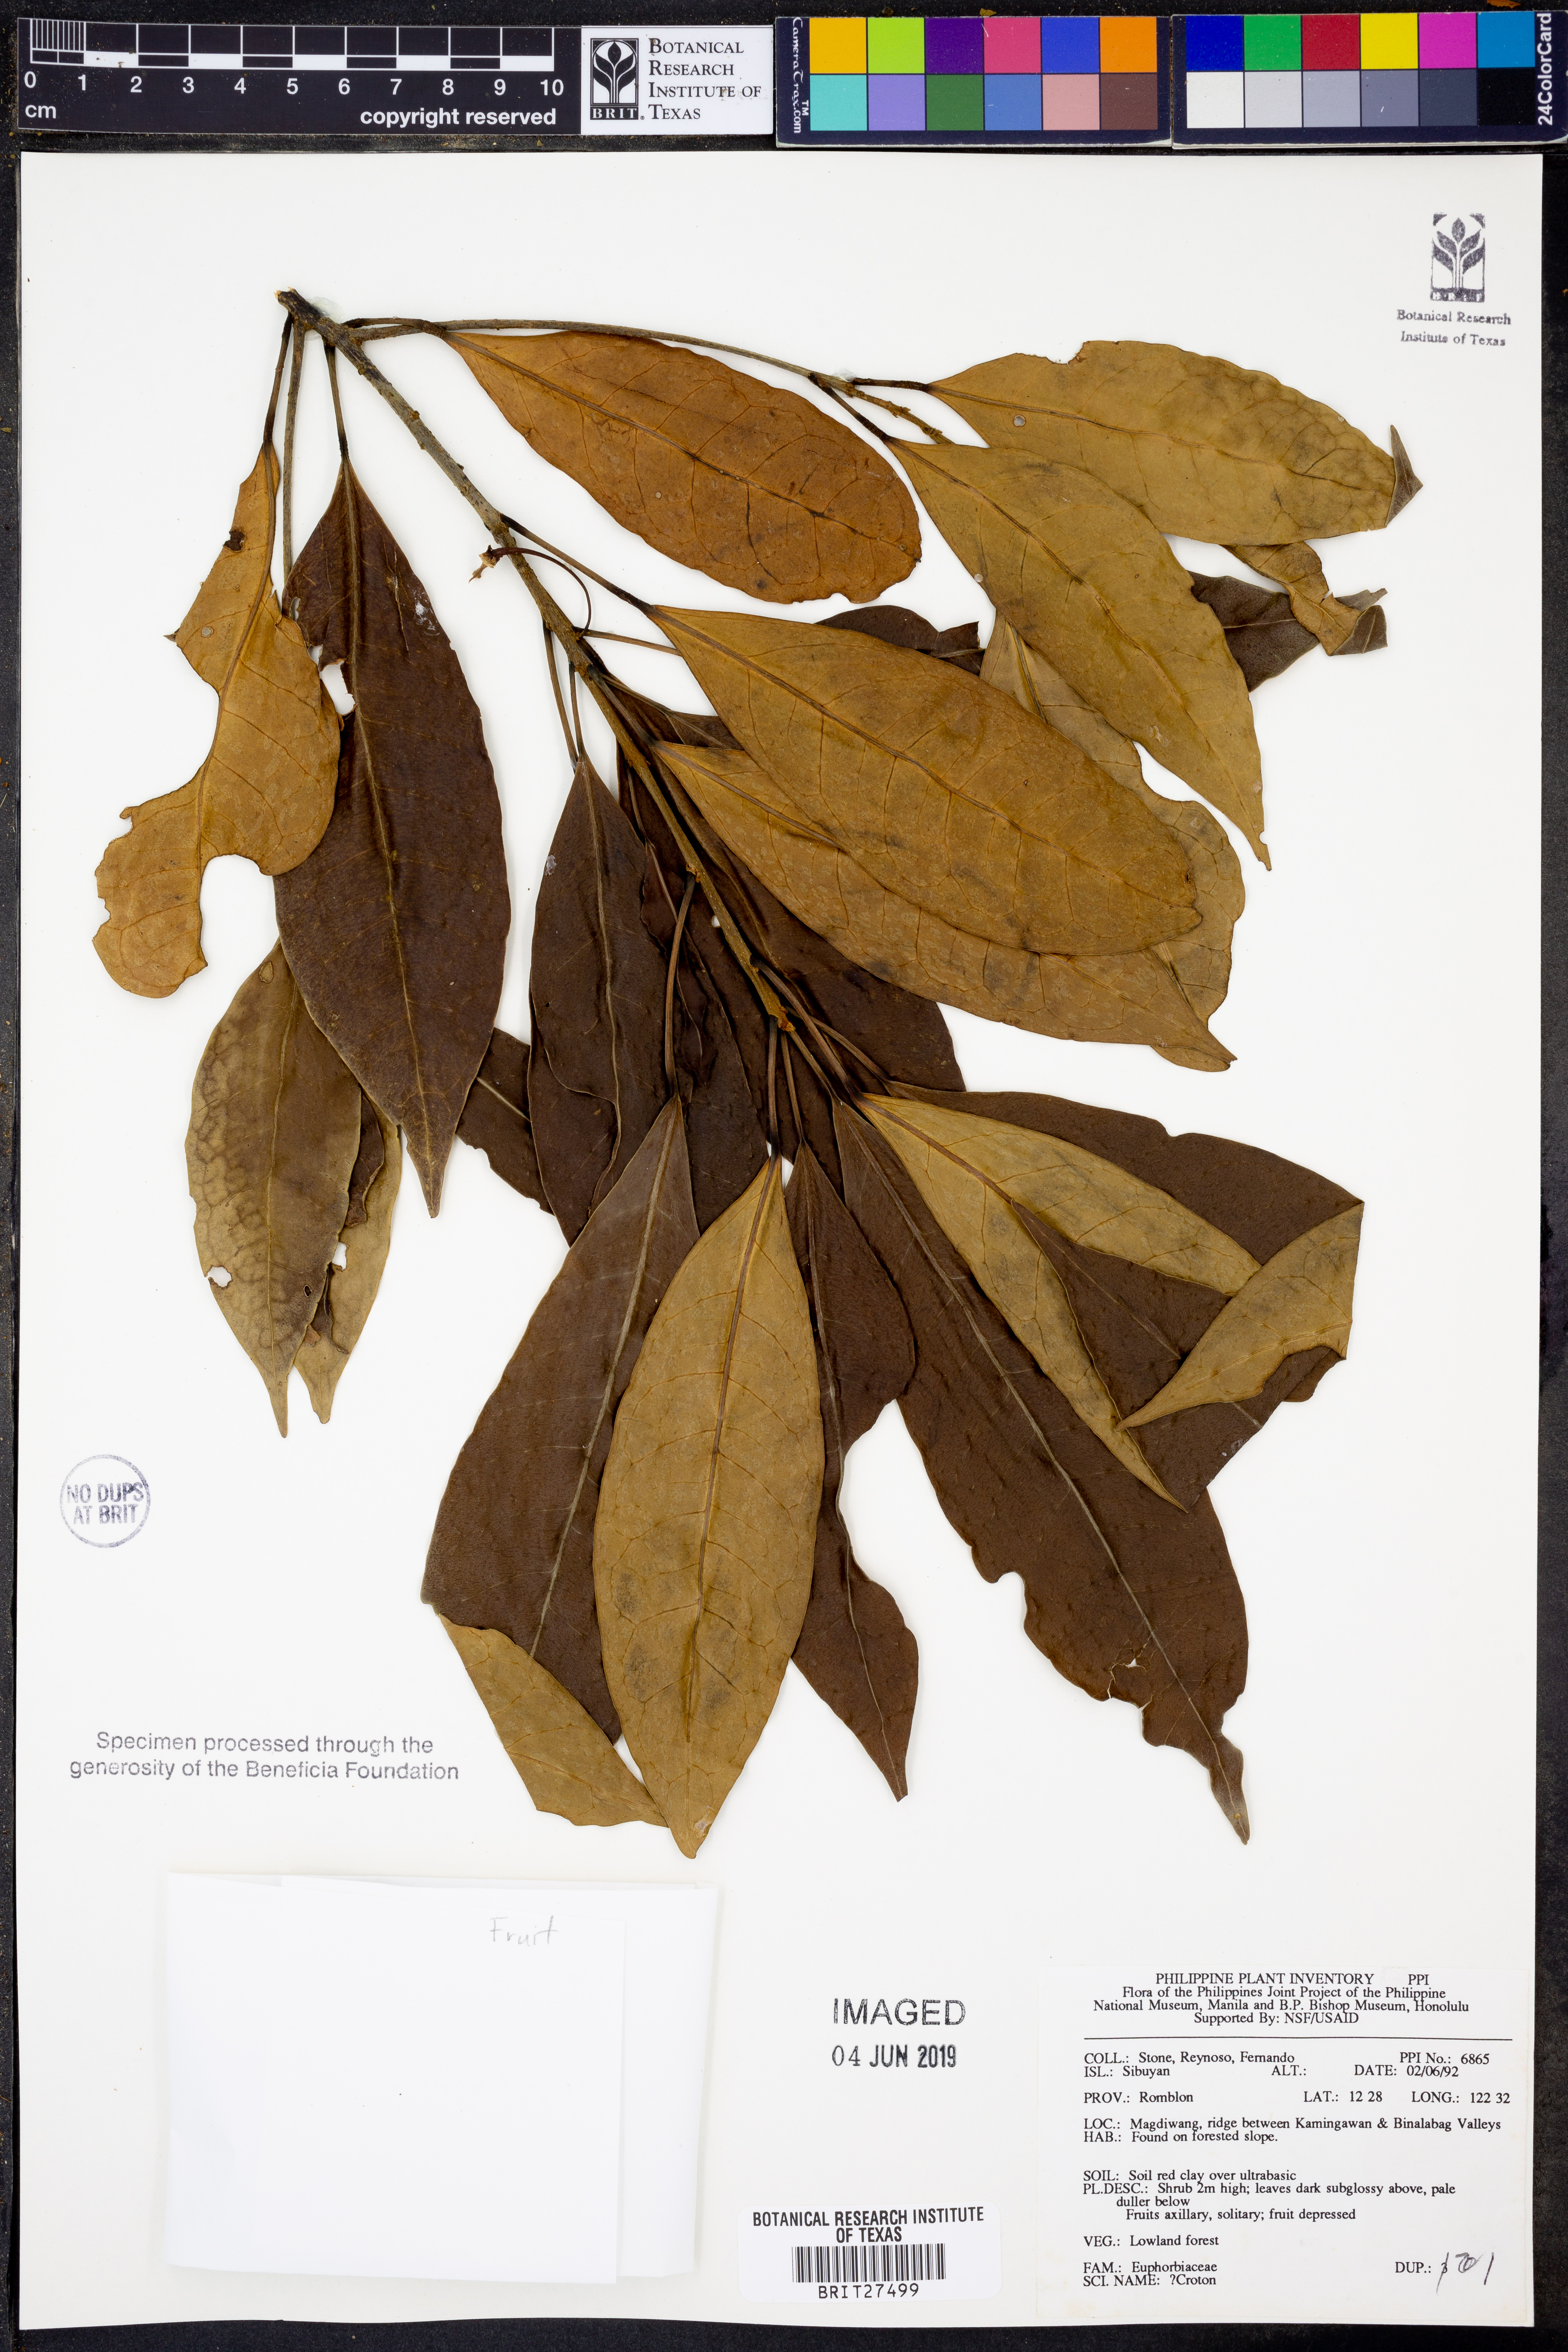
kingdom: Plantae
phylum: Tracheophyta
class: Magnoliopsida
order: Malpighiales
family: Euphorbiaceae
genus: Croton
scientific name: Croton
